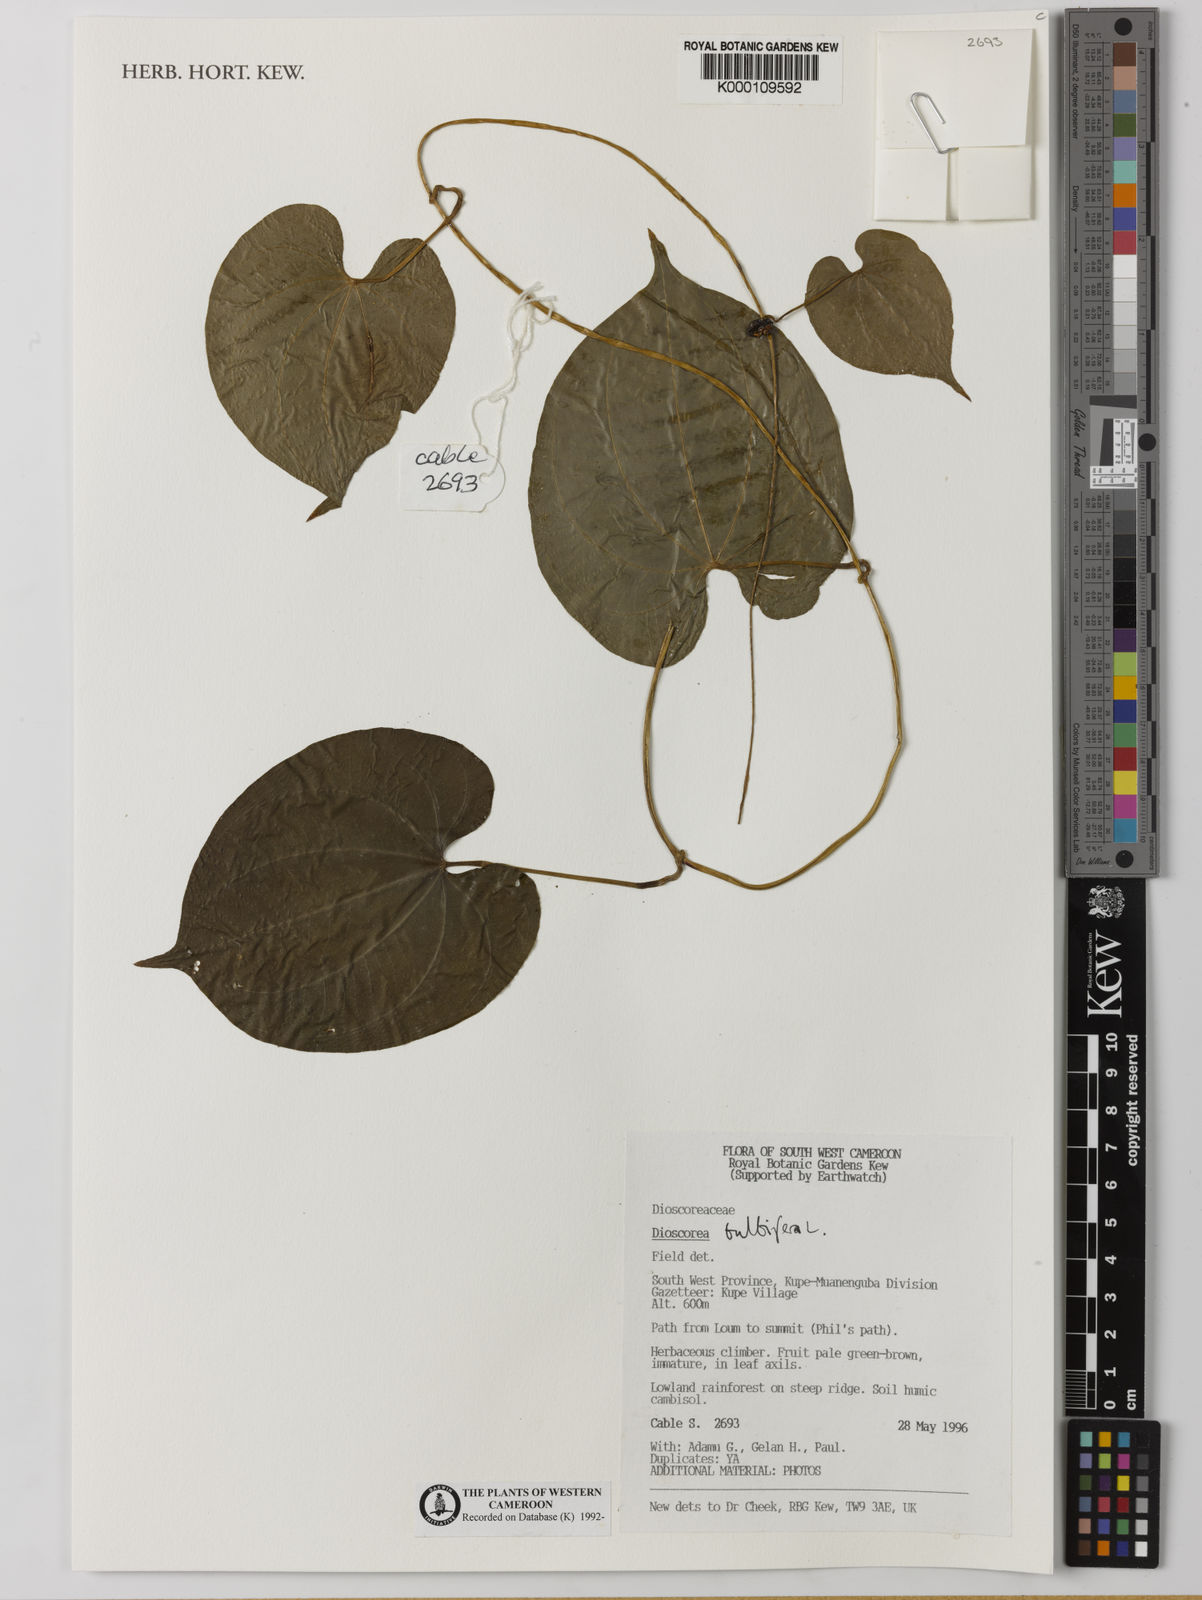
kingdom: Plantae
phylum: Tracheophyta
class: Liliopsida
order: Dioscoreales
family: Dioscoreaceae
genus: Dioscorea
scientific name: Dioscorea bulbifera
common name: Air yam
